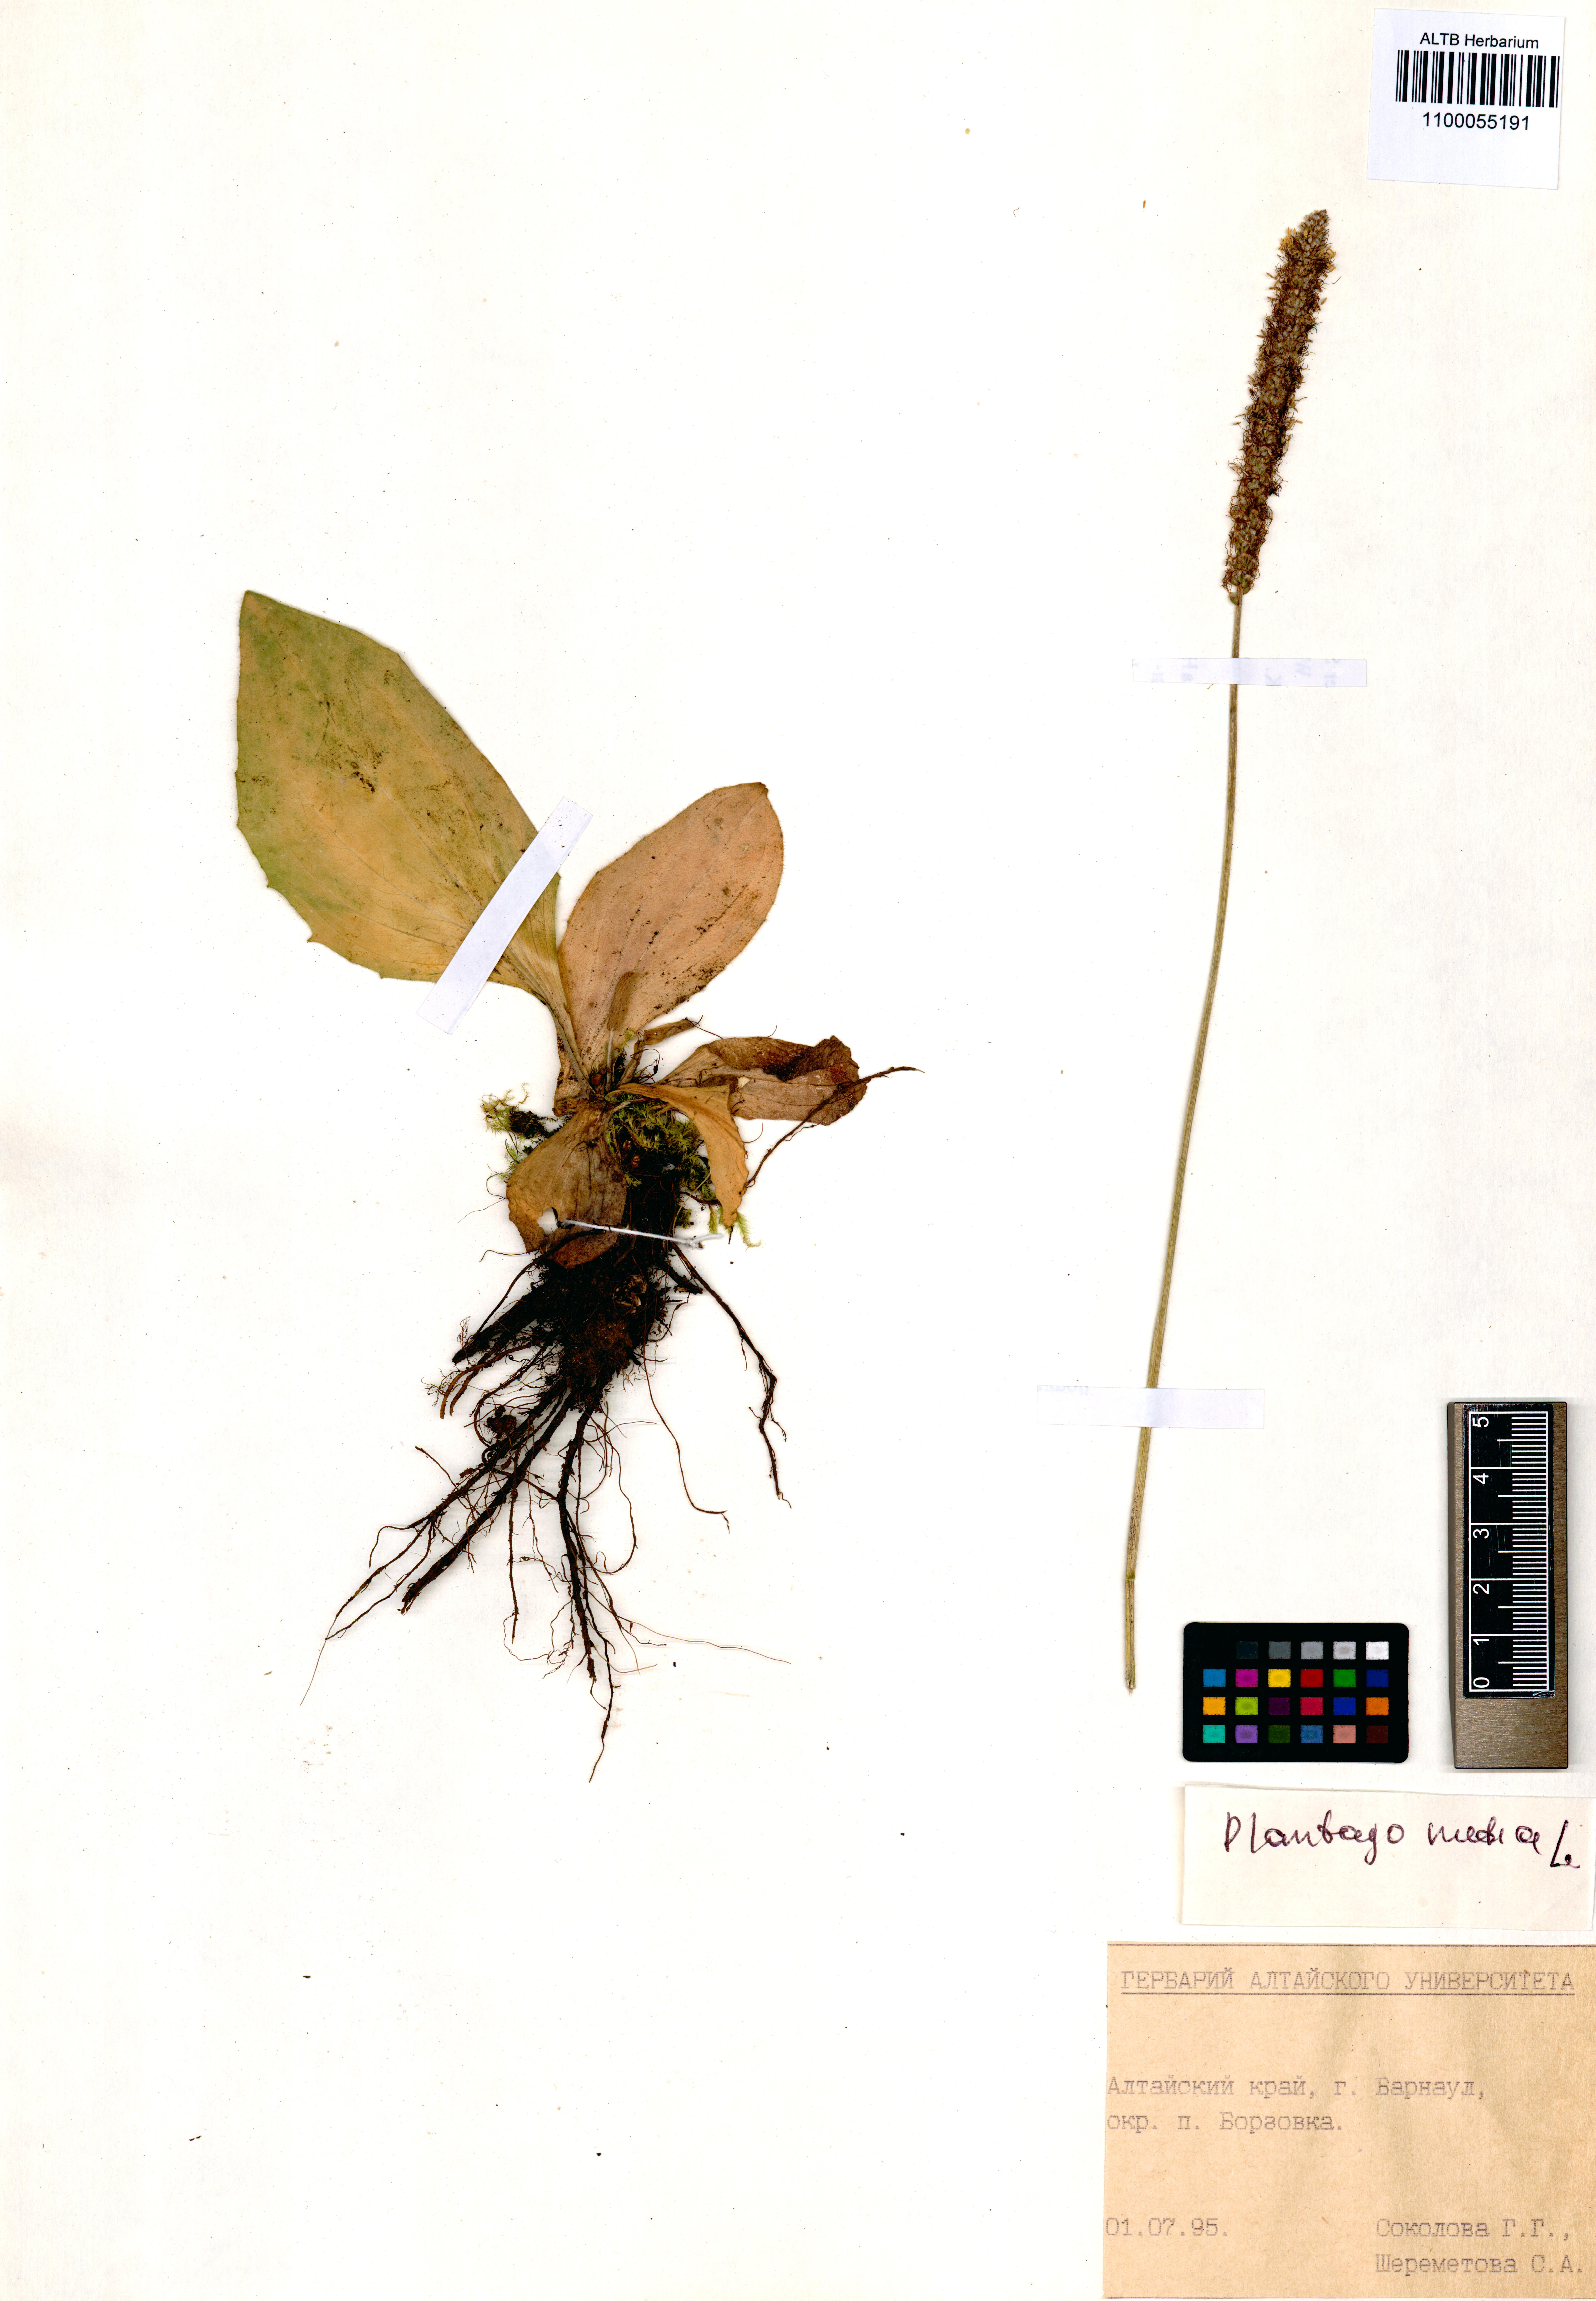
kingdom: Plantae
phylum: Tracheophyta
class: Magnoliopsida
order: Lamiales
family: Plantaginaceae
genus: Plantago
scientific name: Plantago media
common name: Hoary plantain
